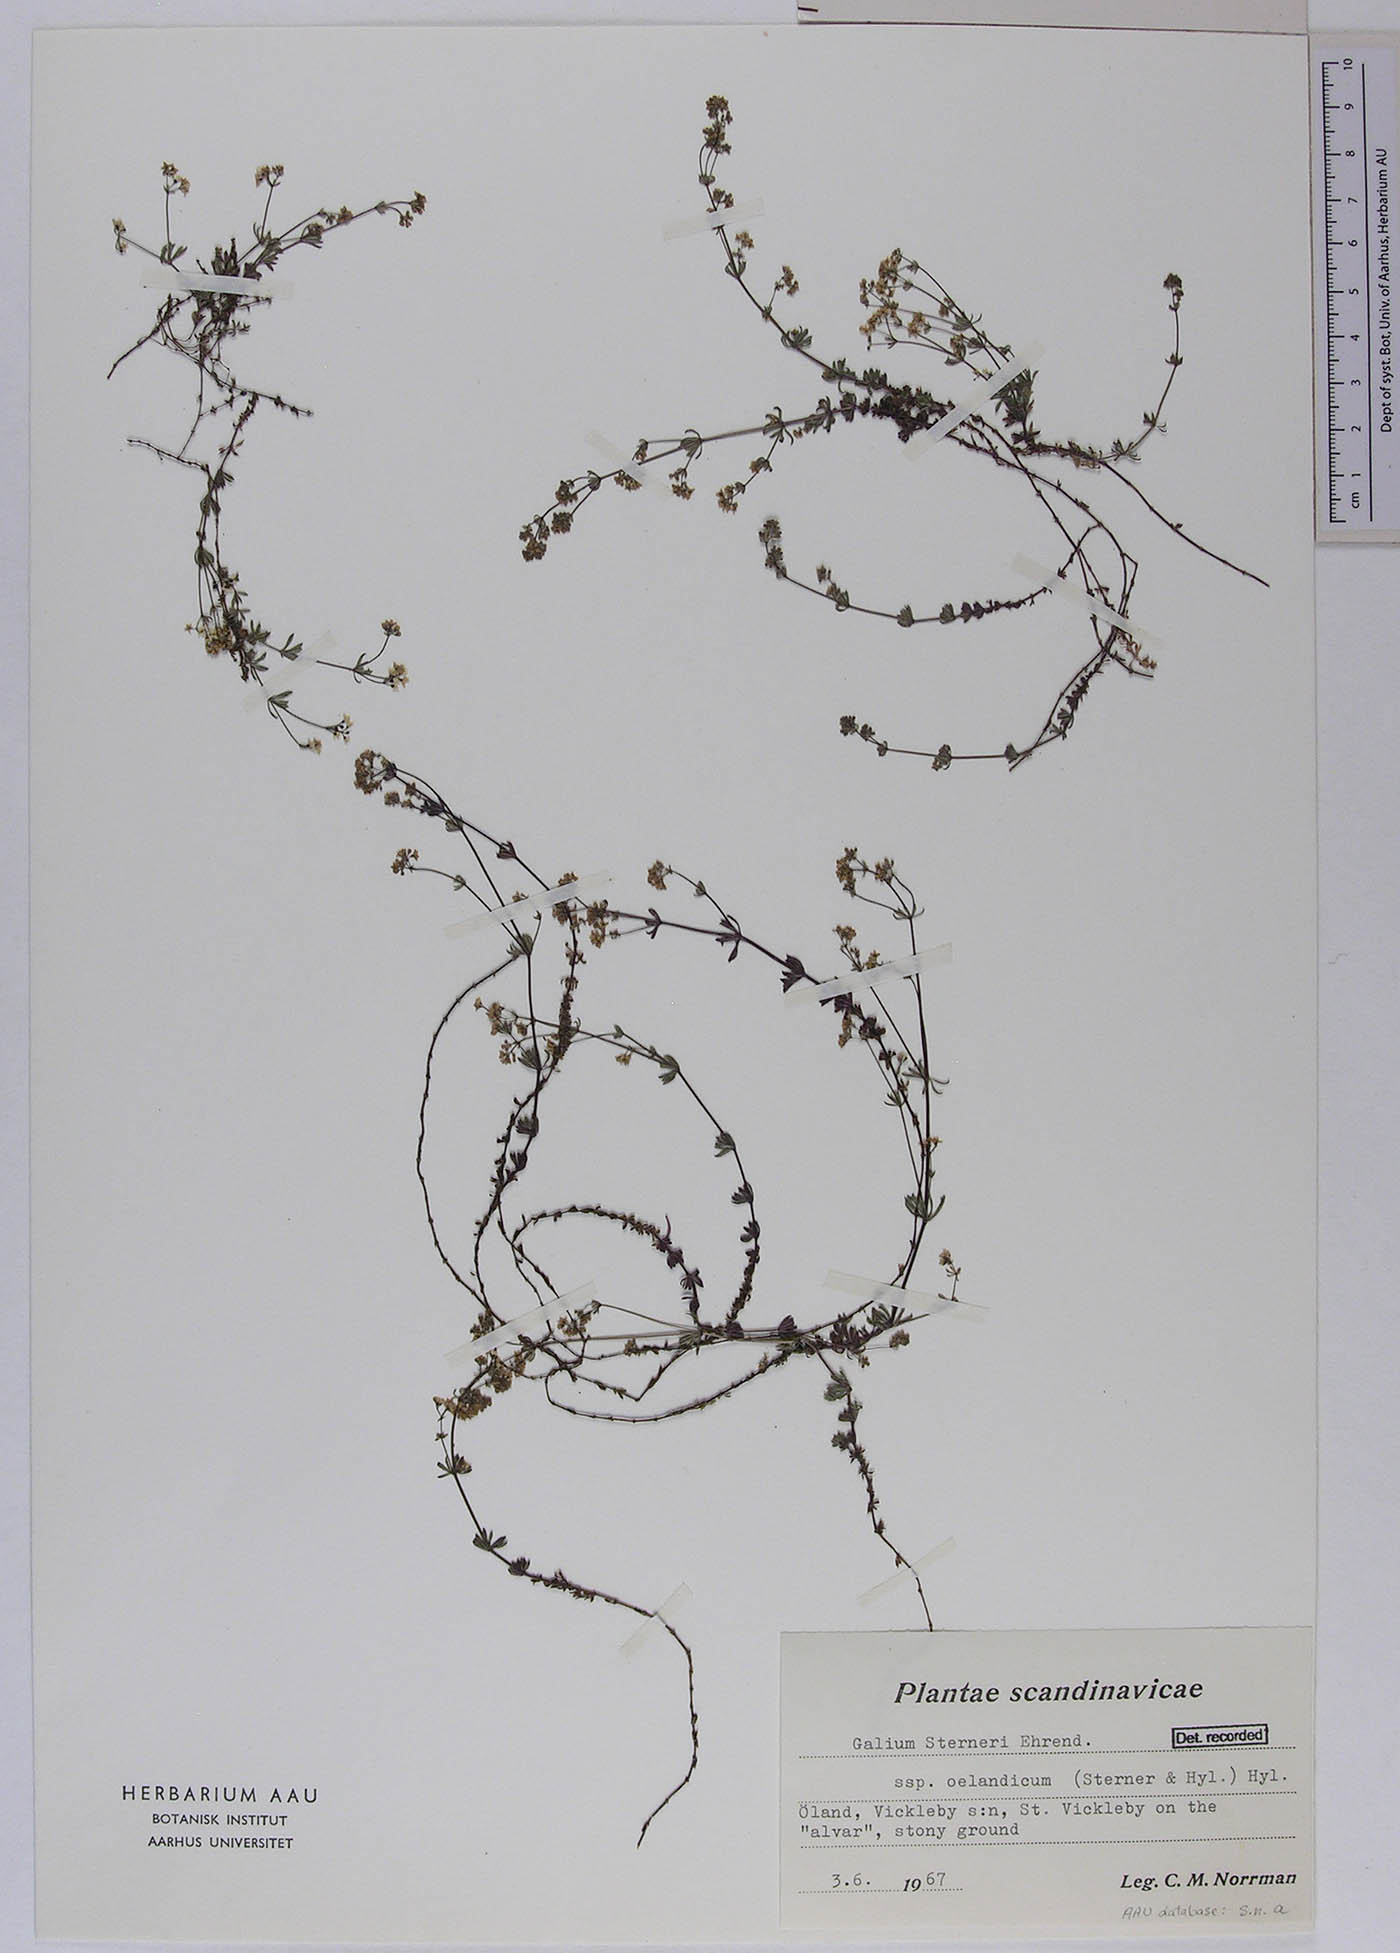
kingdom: Plantae
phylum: Tracheophyta
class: Magnoliopsida
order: Gentianales
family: Rubiaceae
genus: Galium
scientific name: Galium sterneri
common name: Limestone bedstraw
